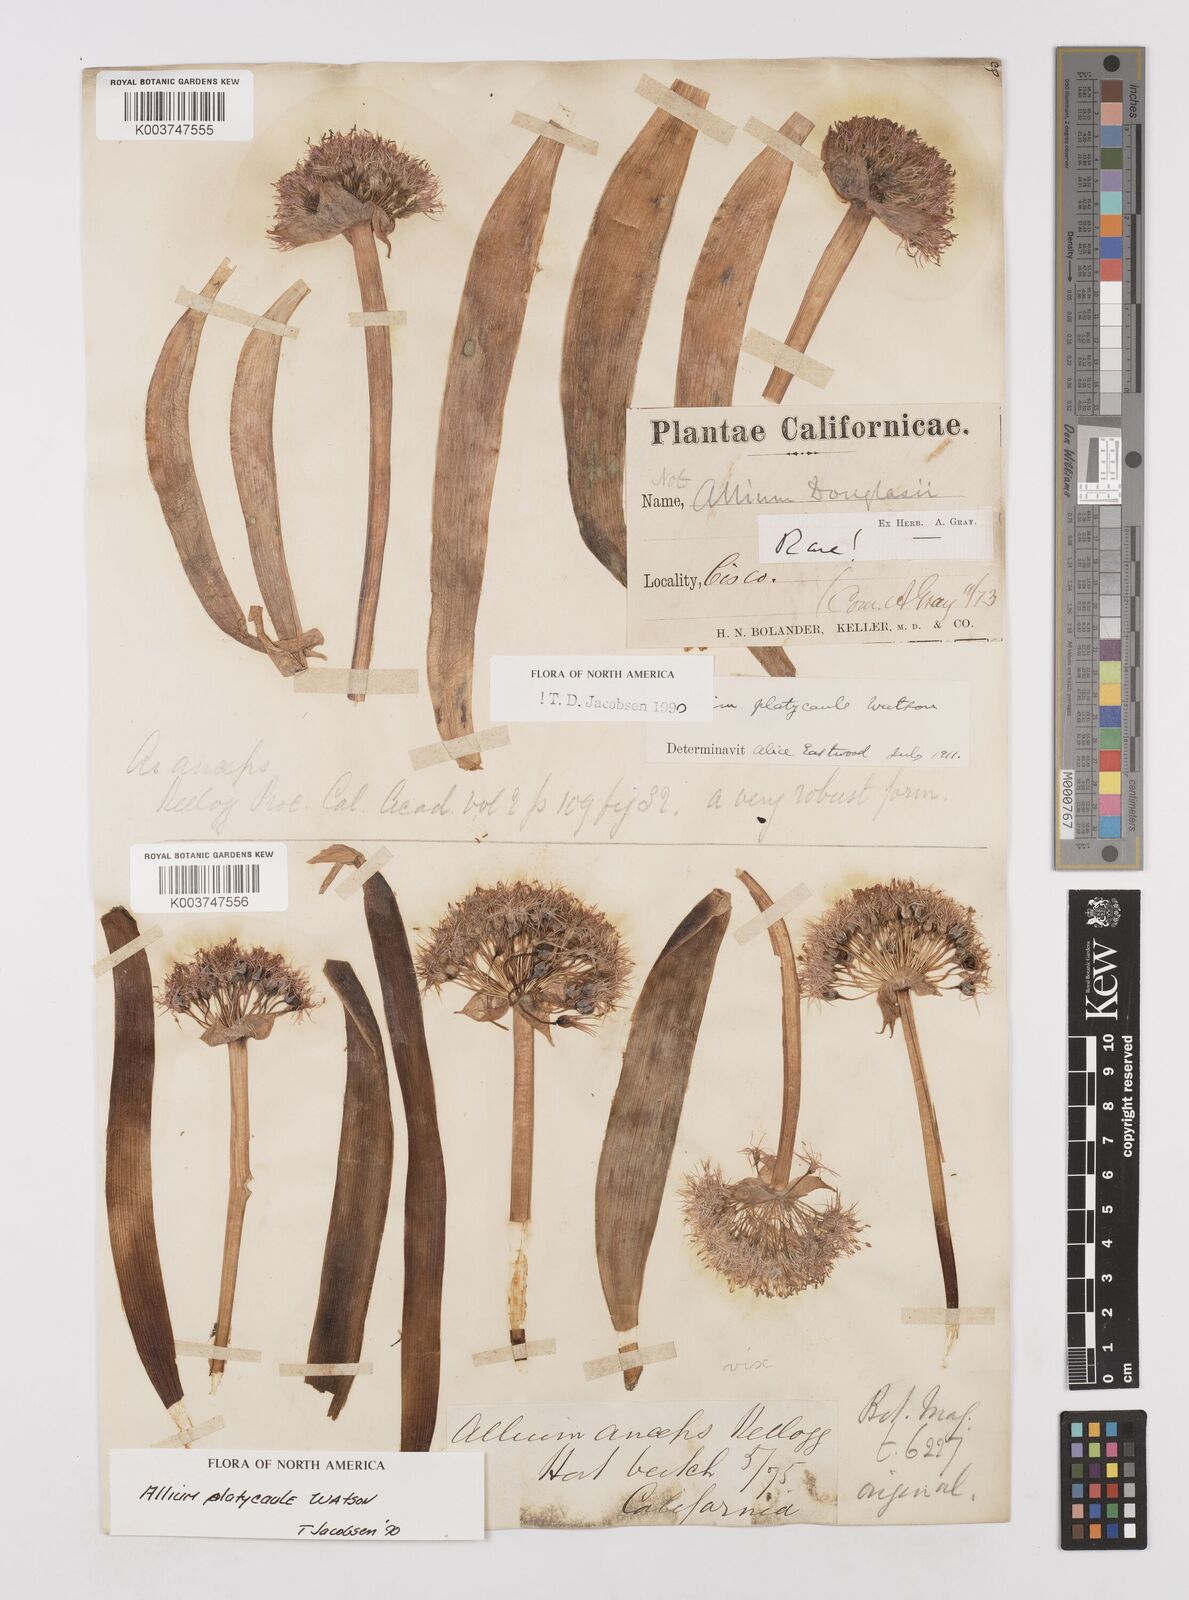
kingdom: Plantae
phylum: Tracheophyta
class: Liliopsida
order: Asparagales
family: Amaryllidaceae
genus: Allium
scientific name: Allium platycaule
